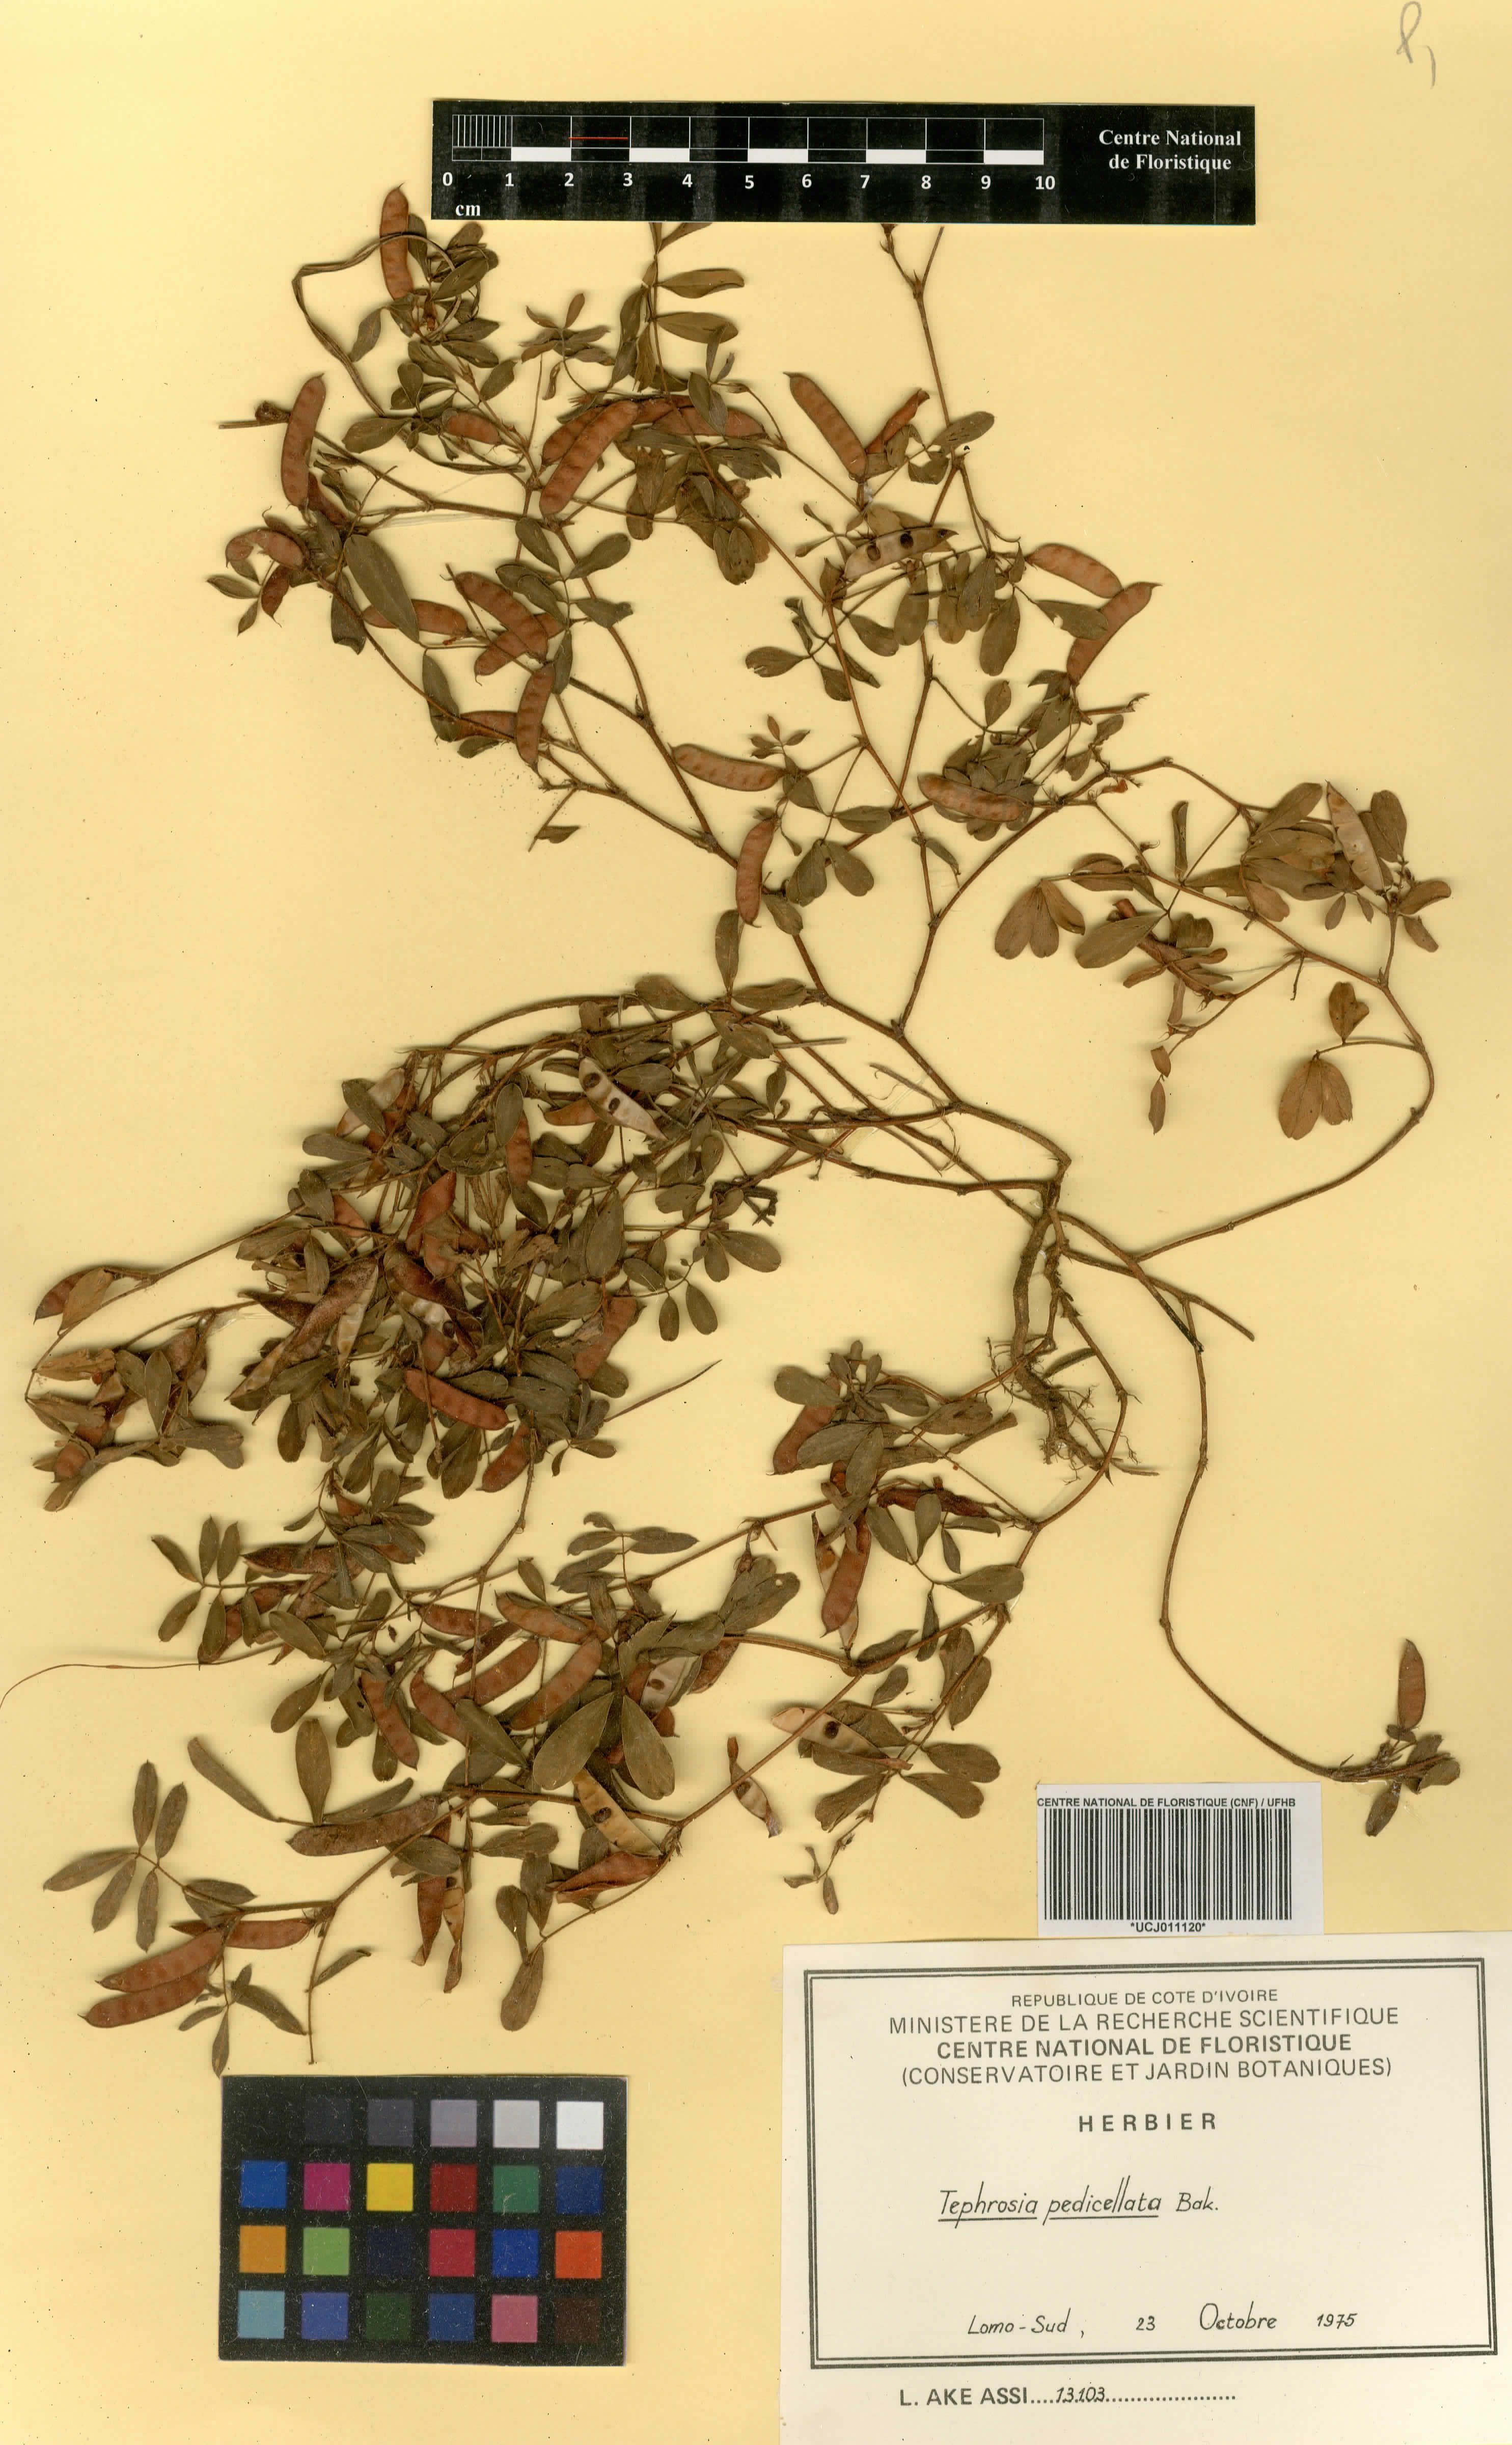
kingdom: Plantae
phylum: Tracheophyta
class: Magnoliopsida
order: Fabales
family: Fabaceae
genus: Tephrosia
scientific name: Tephrosia pedicellata
